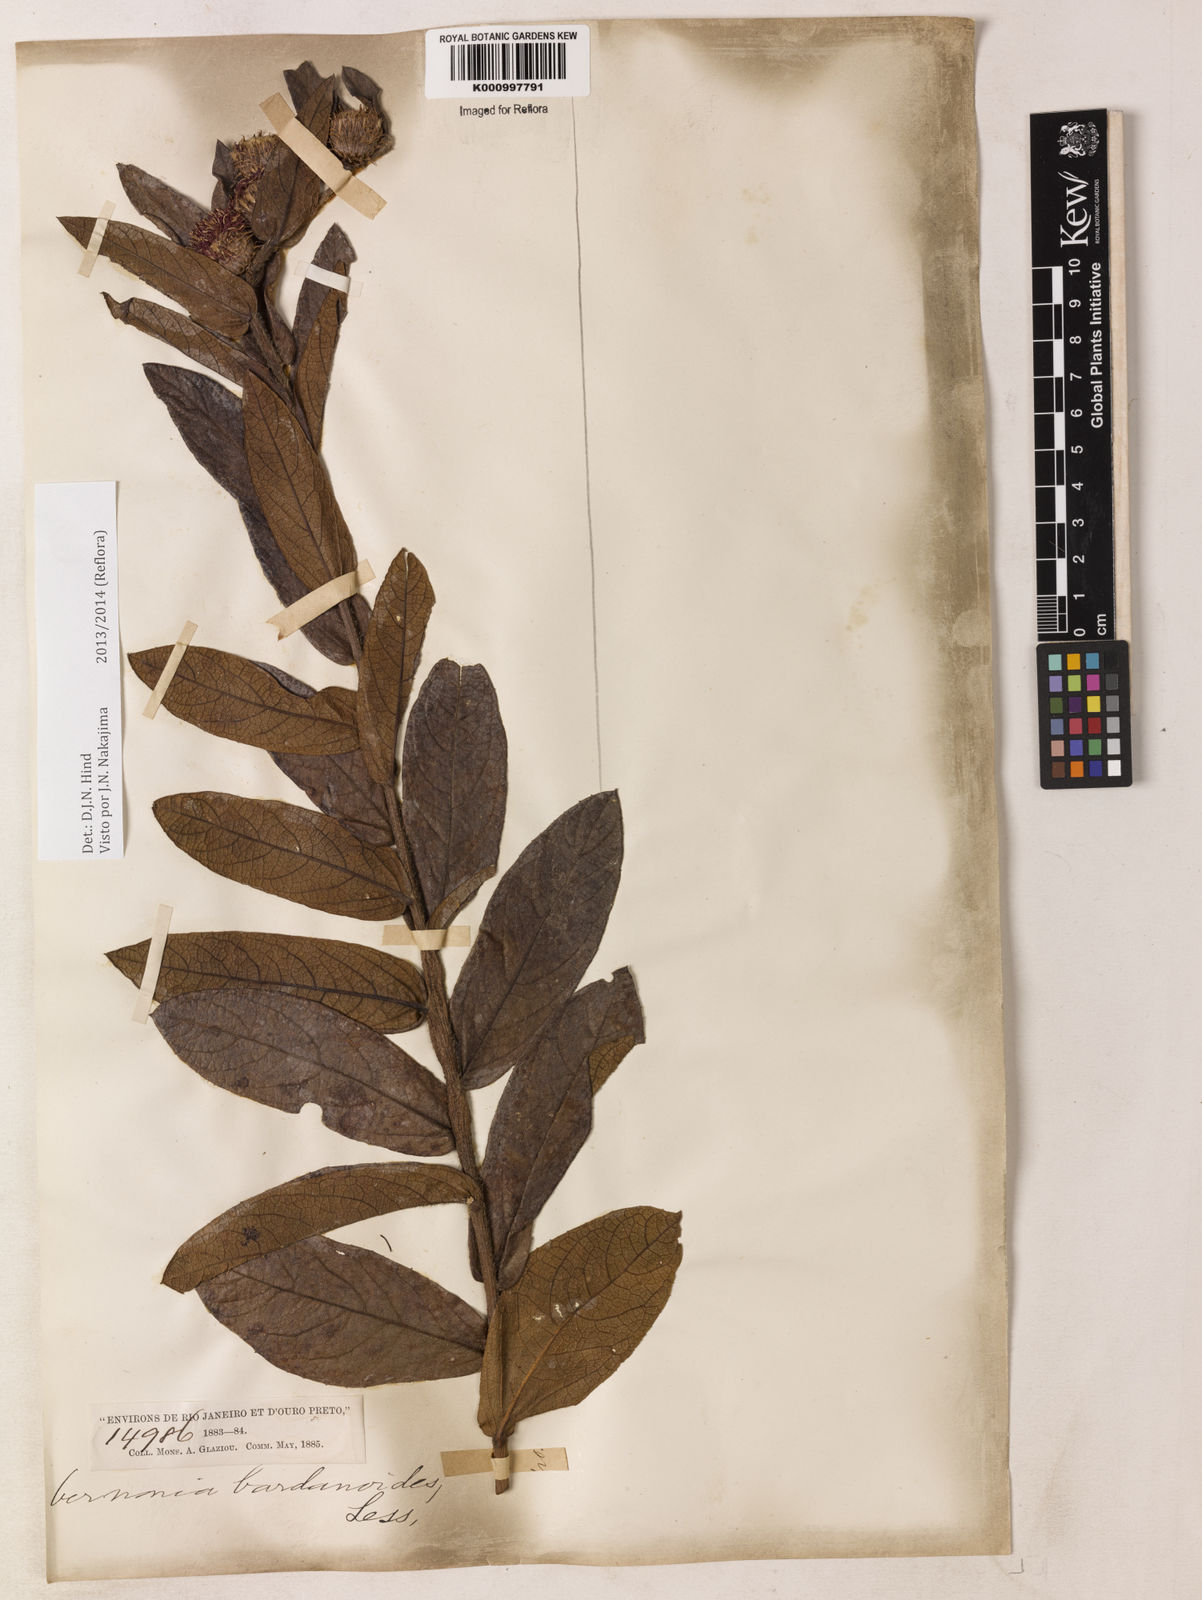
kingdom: Plantae
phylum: Tracheophyta
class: Magnoliopsida
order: Asterales
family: Asteraceae
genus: Lessingianthus
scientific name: Lessingianthus bardanioides
